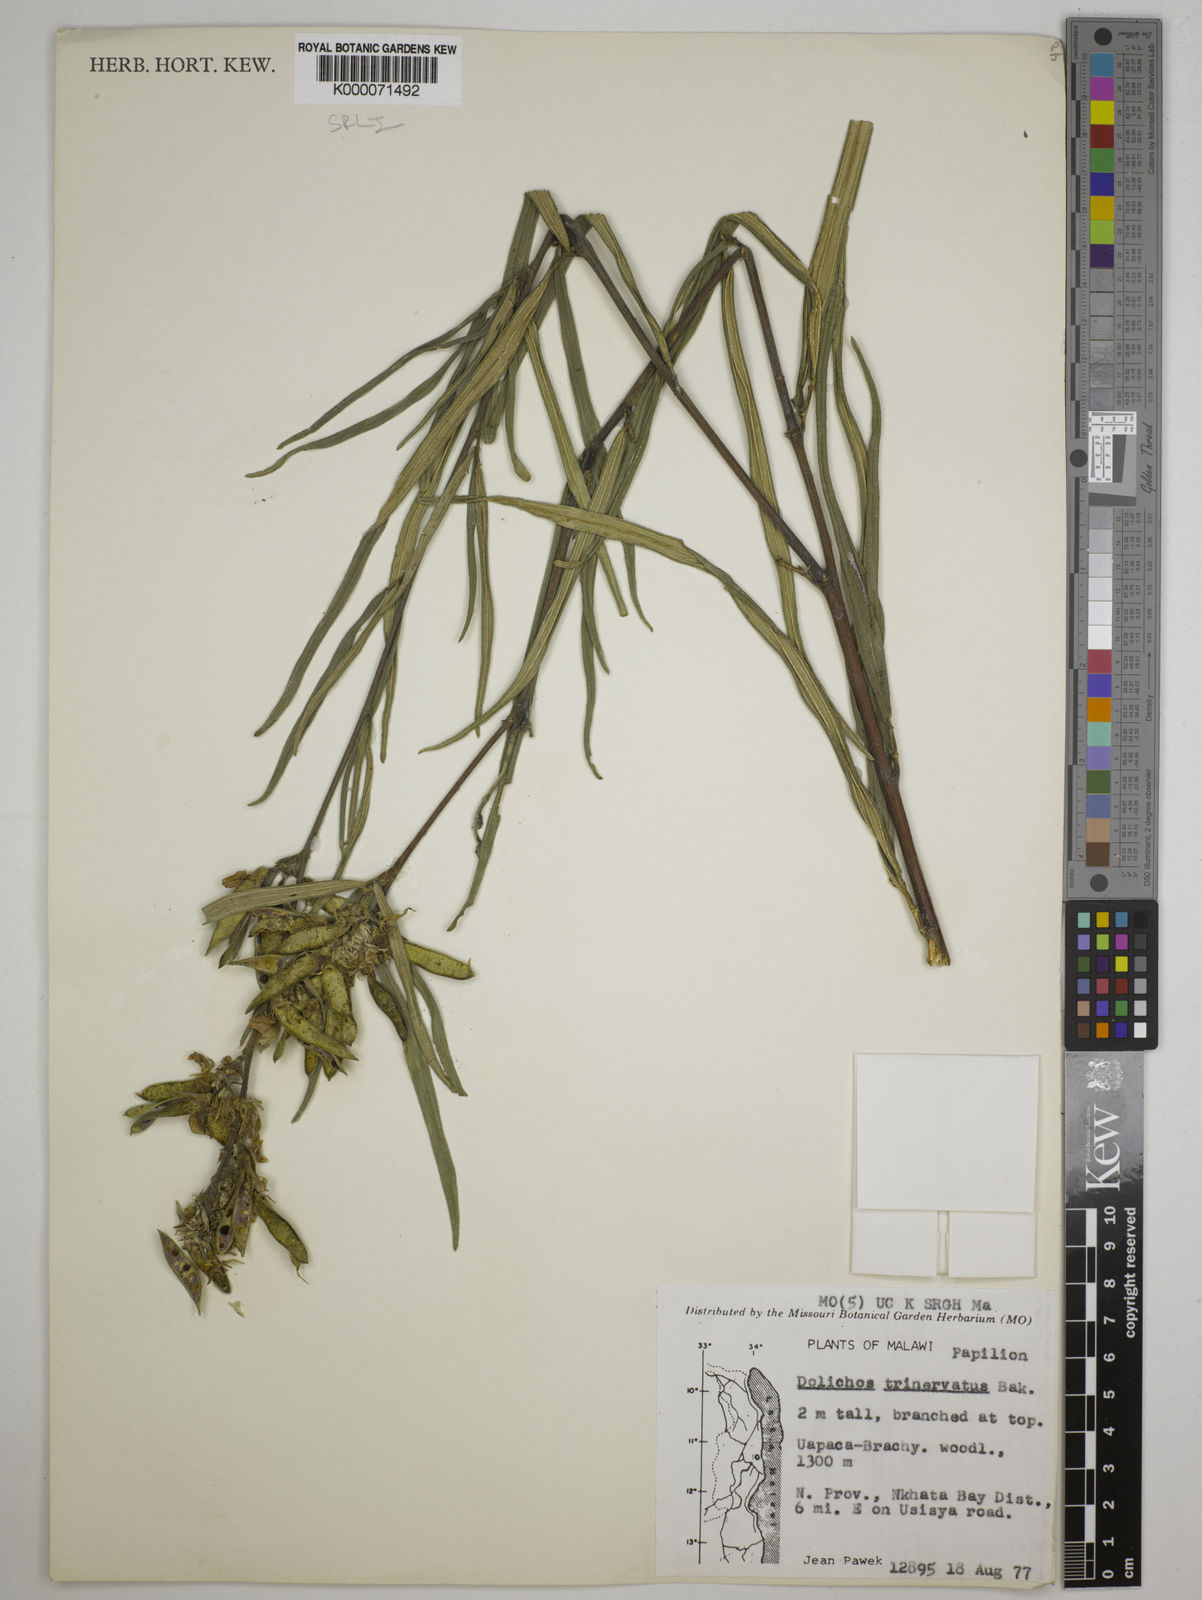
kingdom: Plantae
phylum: Tracheophyta
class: Magnoliopsida
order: Fabales
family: Fabaceae
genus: Dolichos
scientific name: Dolichos trinervatus
